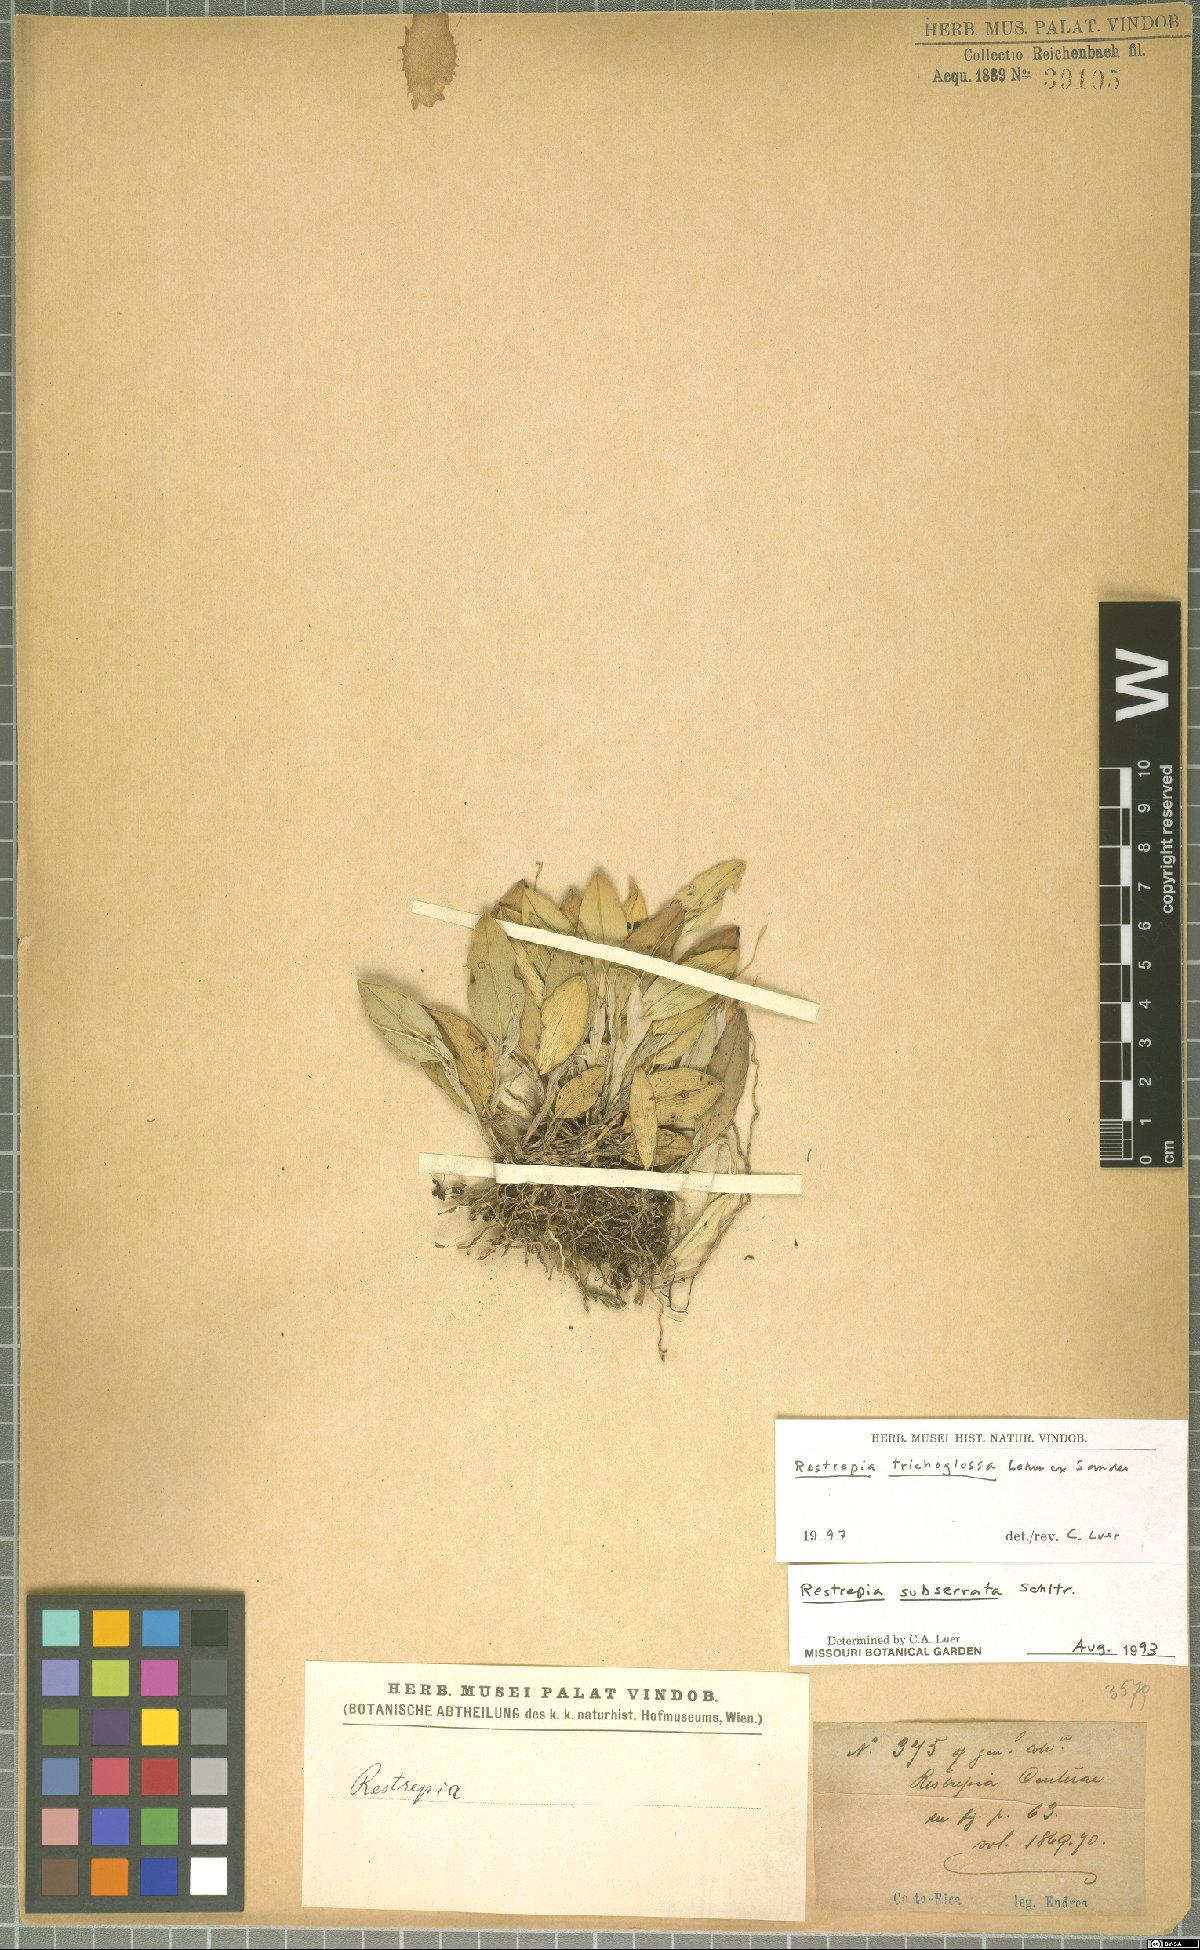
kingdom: Plantae
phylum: Tracheophyta
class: Liliopsida
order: Asparagales
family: Orchidaceae
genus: Restrepia
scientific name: Restrepia trichoglossa
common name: Hairy tongued restrepia
